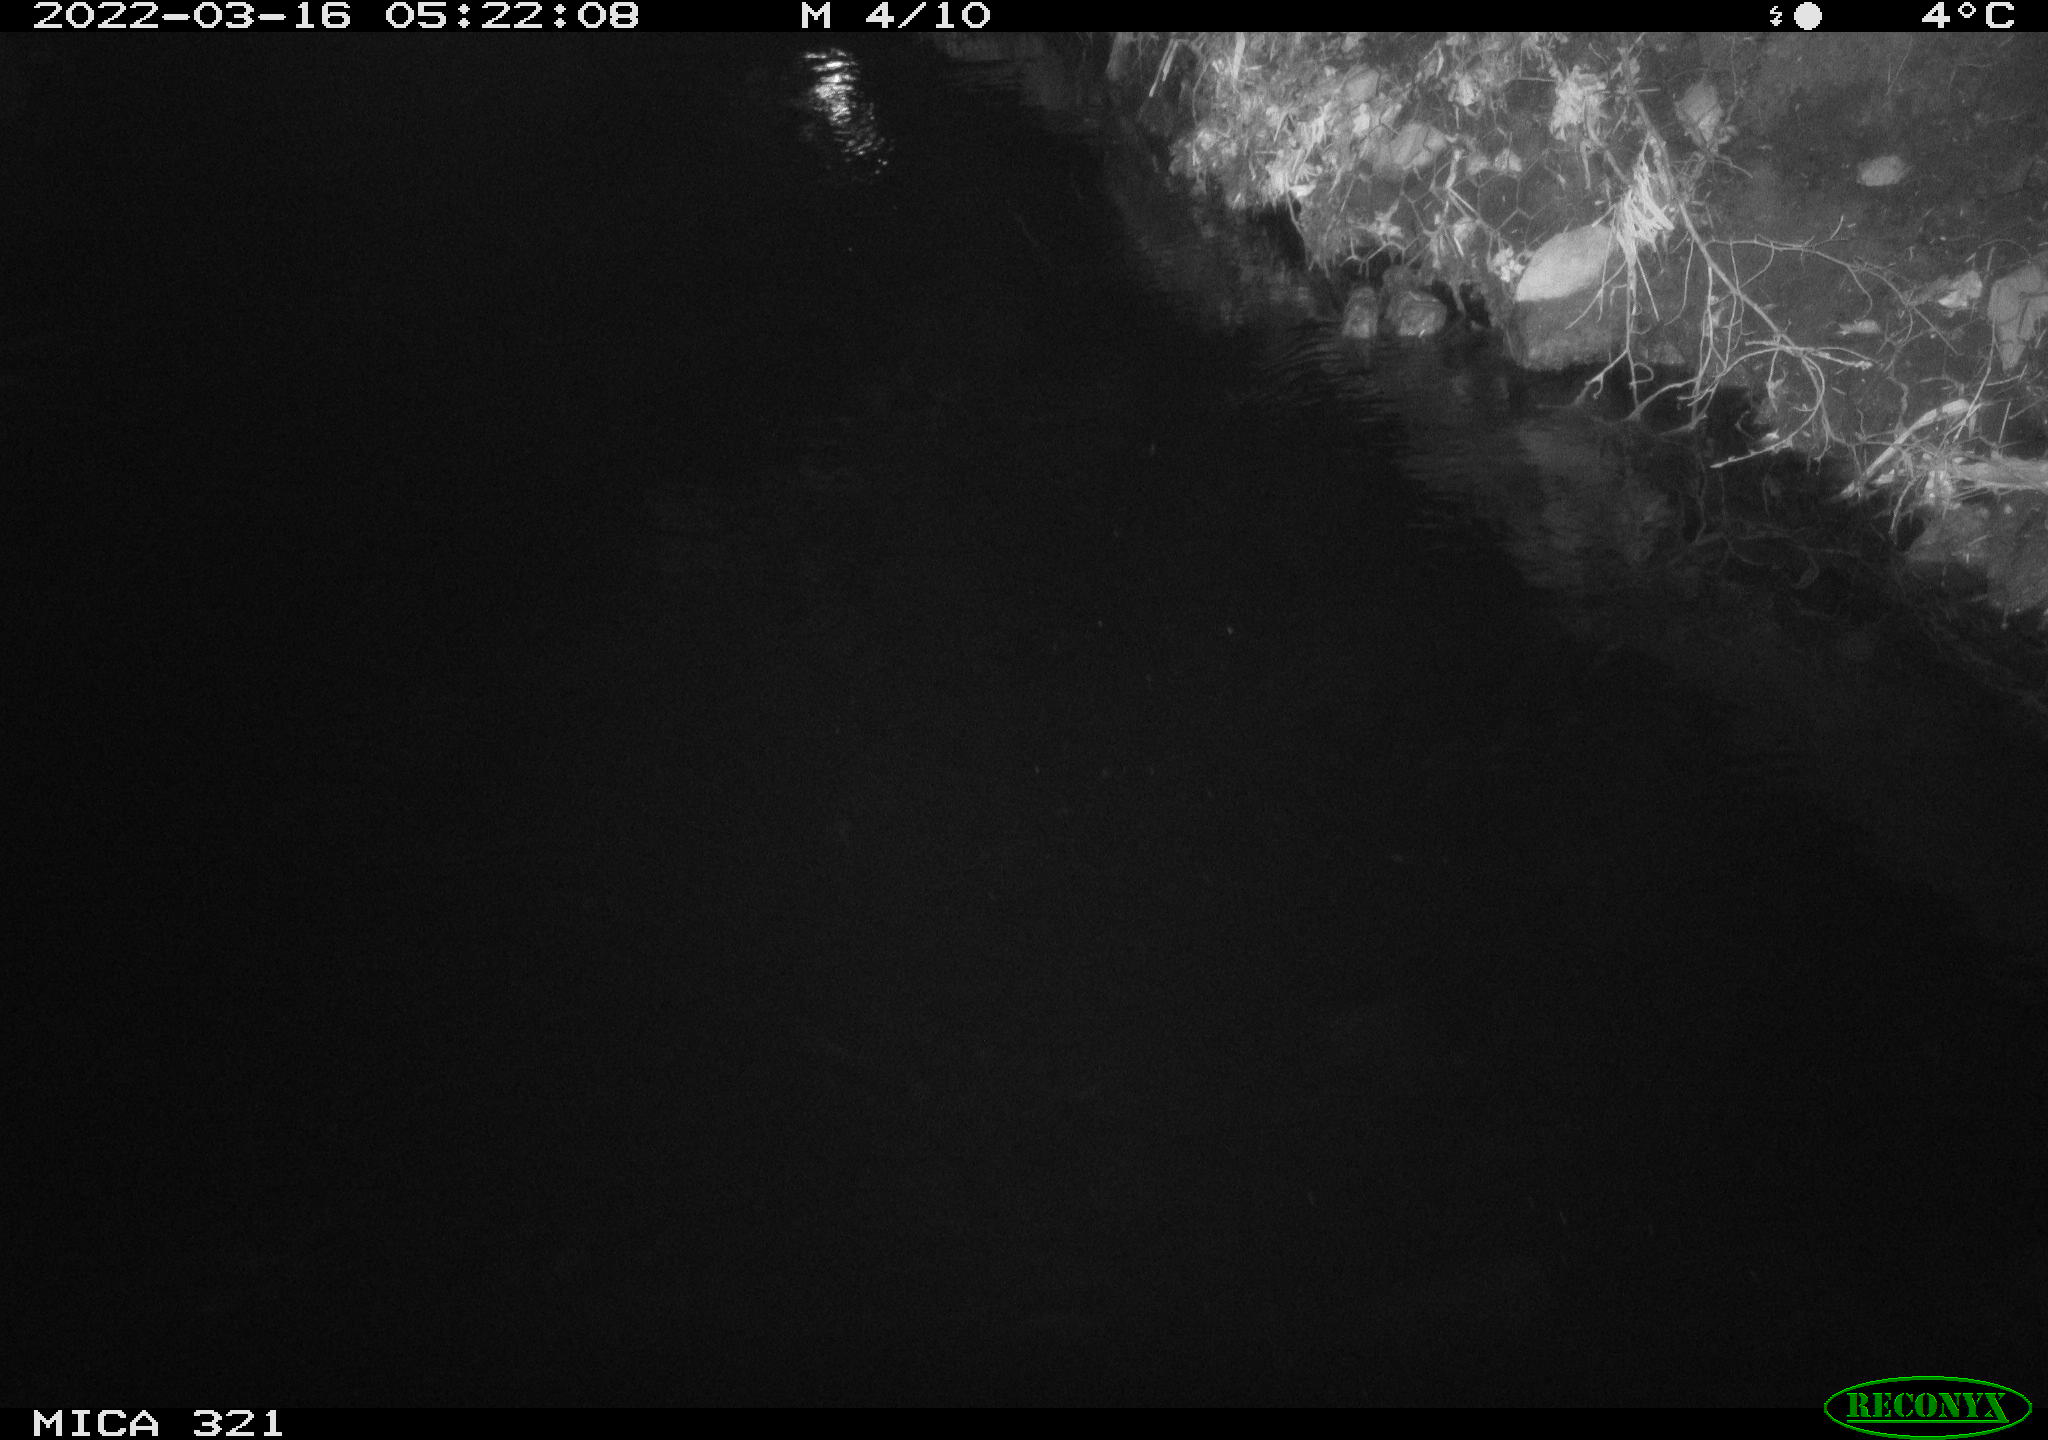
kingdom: Animalia
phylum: Chordata
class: Aves
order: Anseriformes
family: Anatidae
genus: Anas
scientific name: Anas platyrhynchos
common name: Mallard
